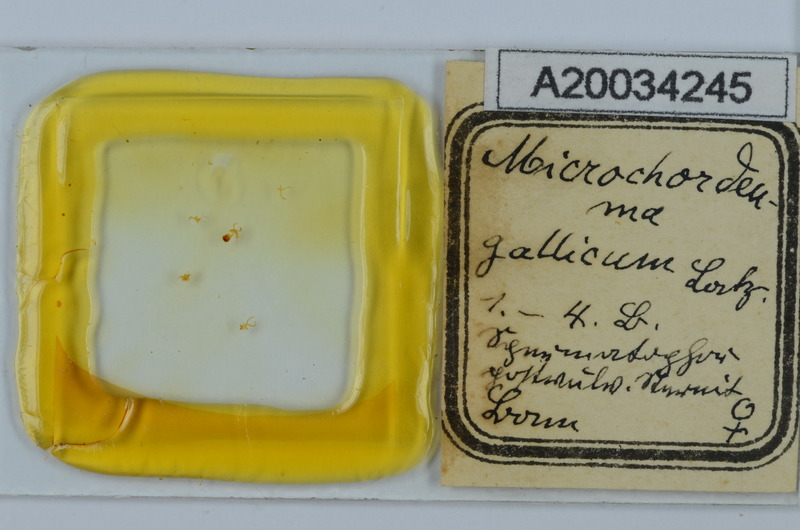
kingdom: Animalia
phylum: Arthropoda
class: Diplopoda
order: Chordeumatida
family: Chordeumatidae
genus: Melogona
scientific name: Melogona gallica
